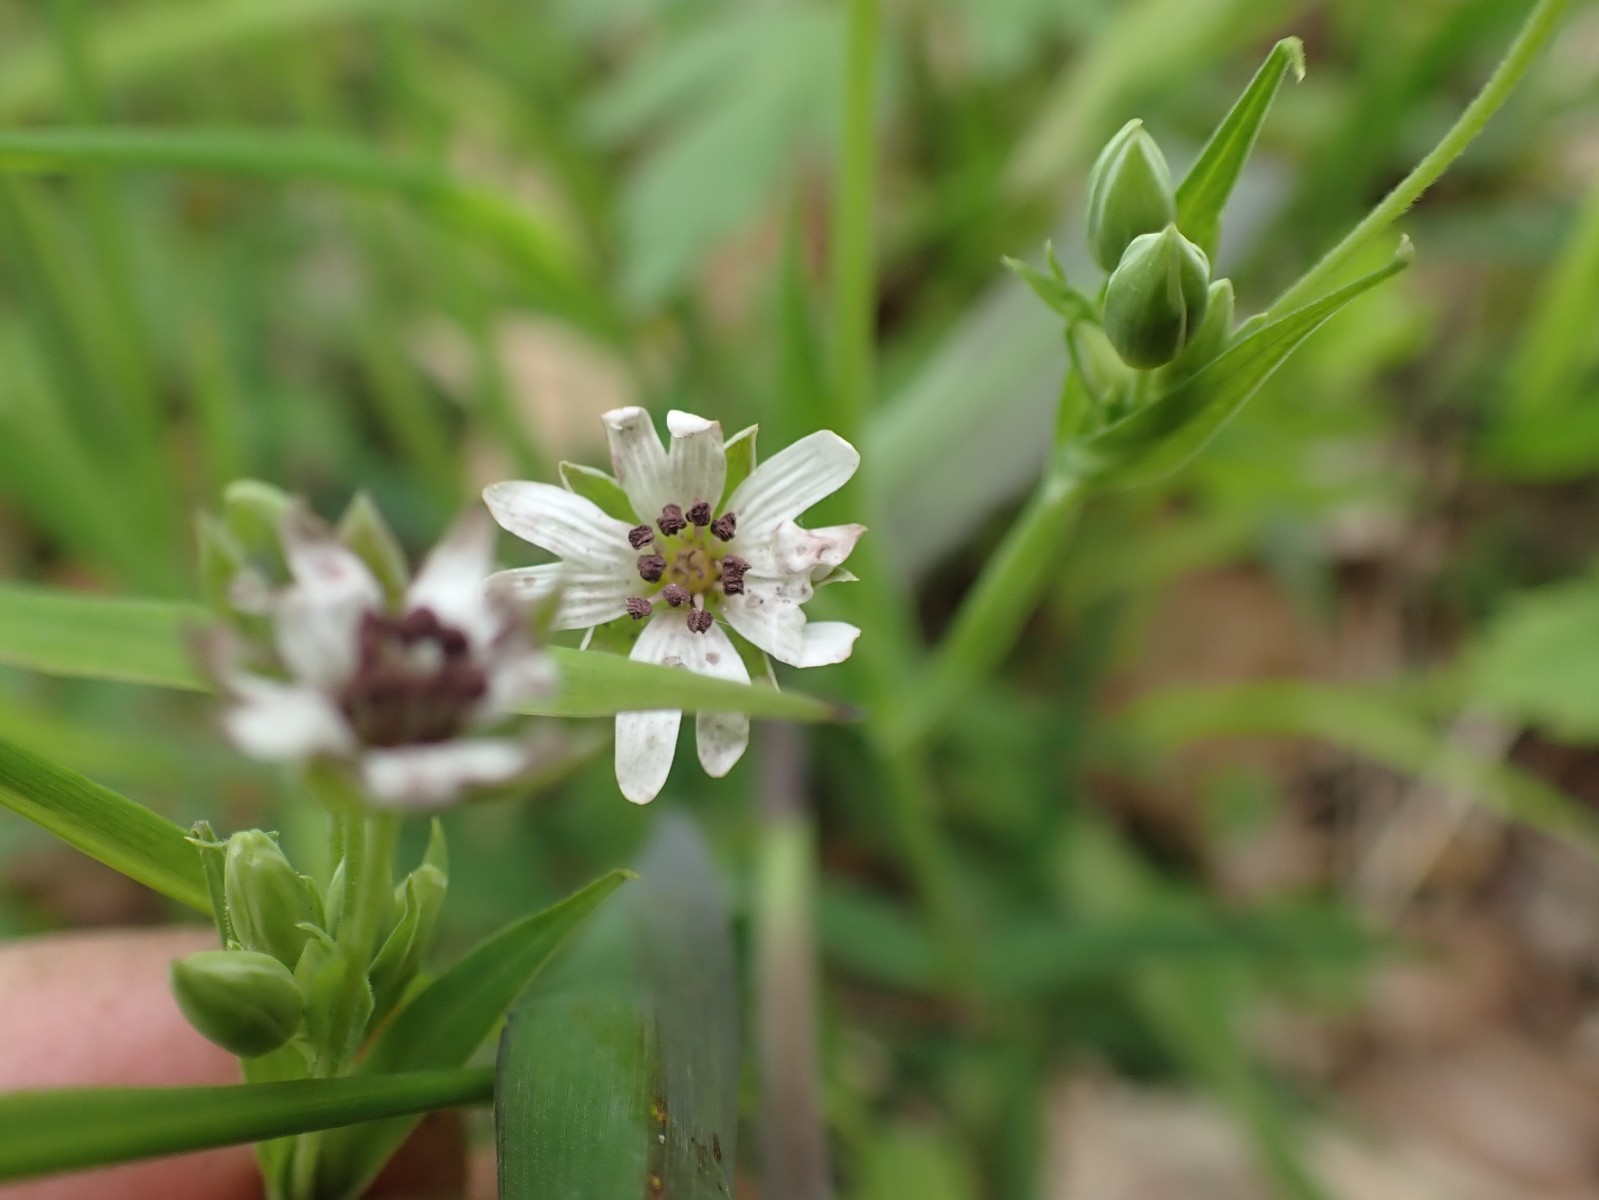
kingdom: Fungi
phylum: Basidiomycota
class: Microbotryomycetes
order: Microbotryales
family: Microbotryaceae
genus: Microbotryum
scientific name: Microbotryum stellariae
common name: fladstjerne-støvbladrust
